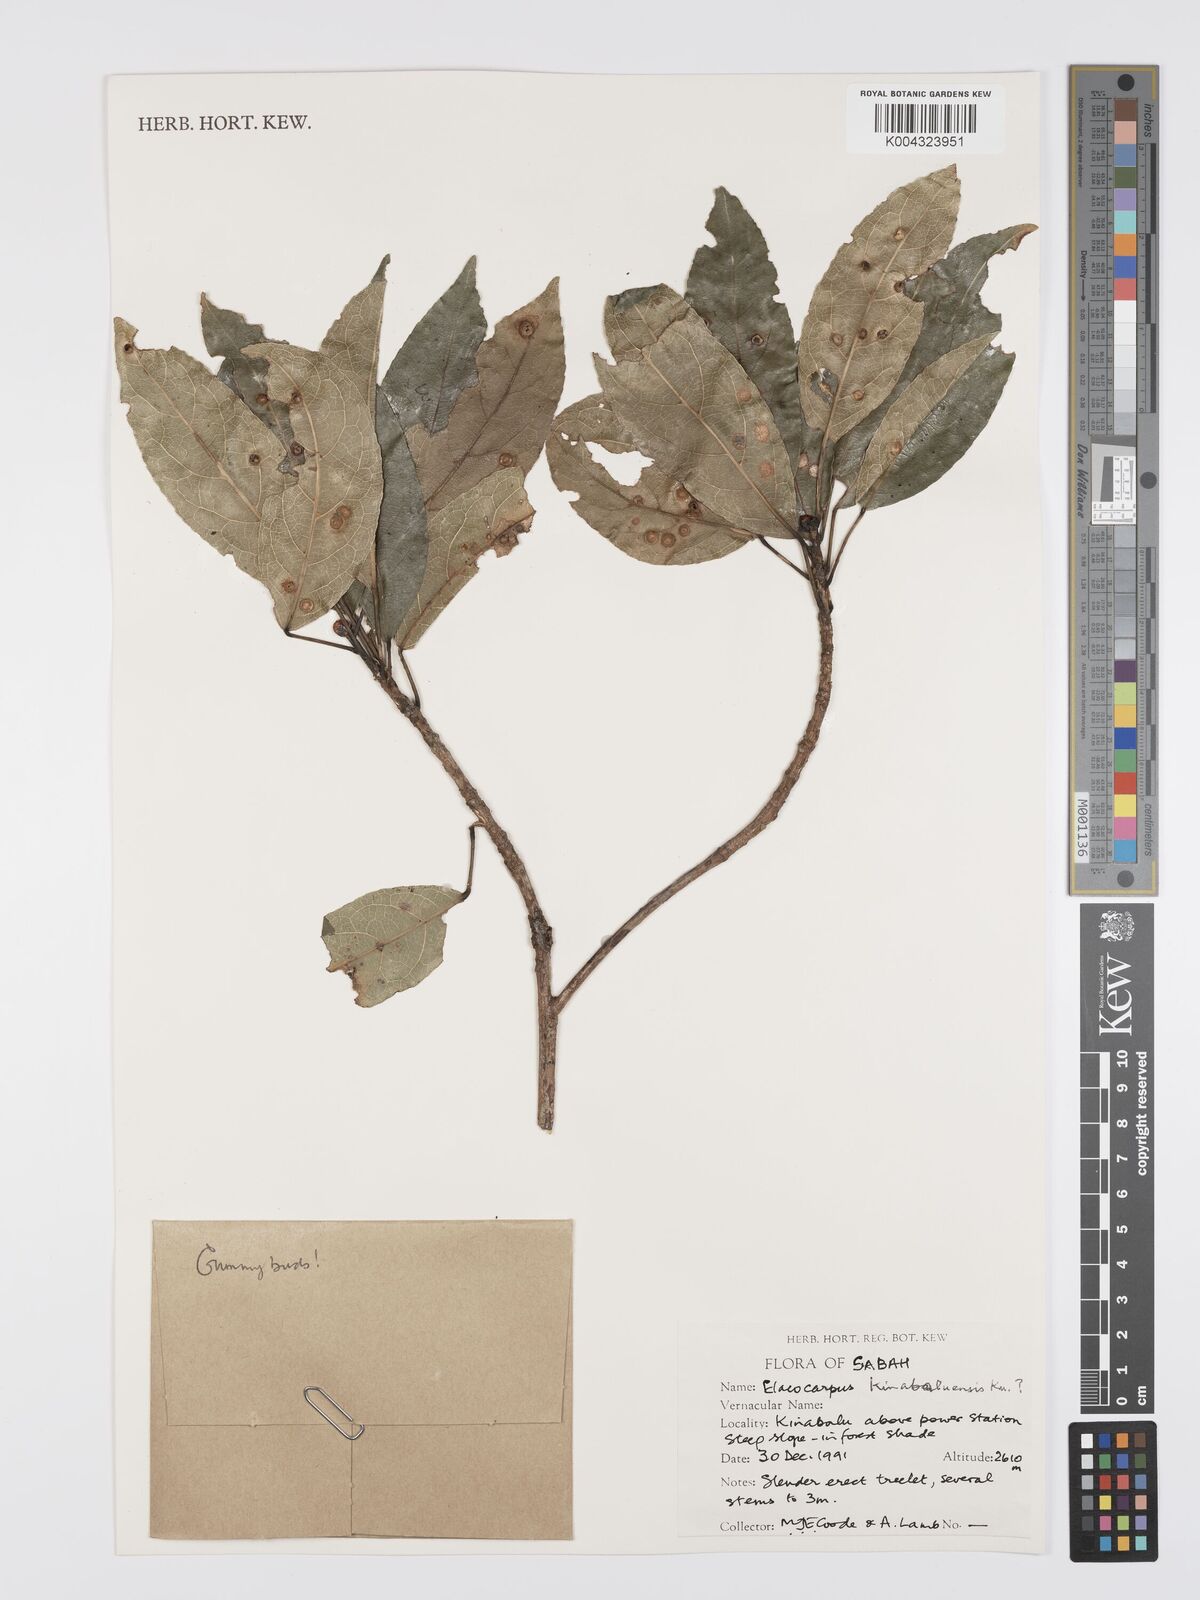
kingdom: Plantae
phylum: Tracheophyta
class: Magnoliopsida
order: Oxalidales
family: Elaeocarpaceae
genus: Elaeocarpus
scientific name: Elaeocarpus kinabaluensis
